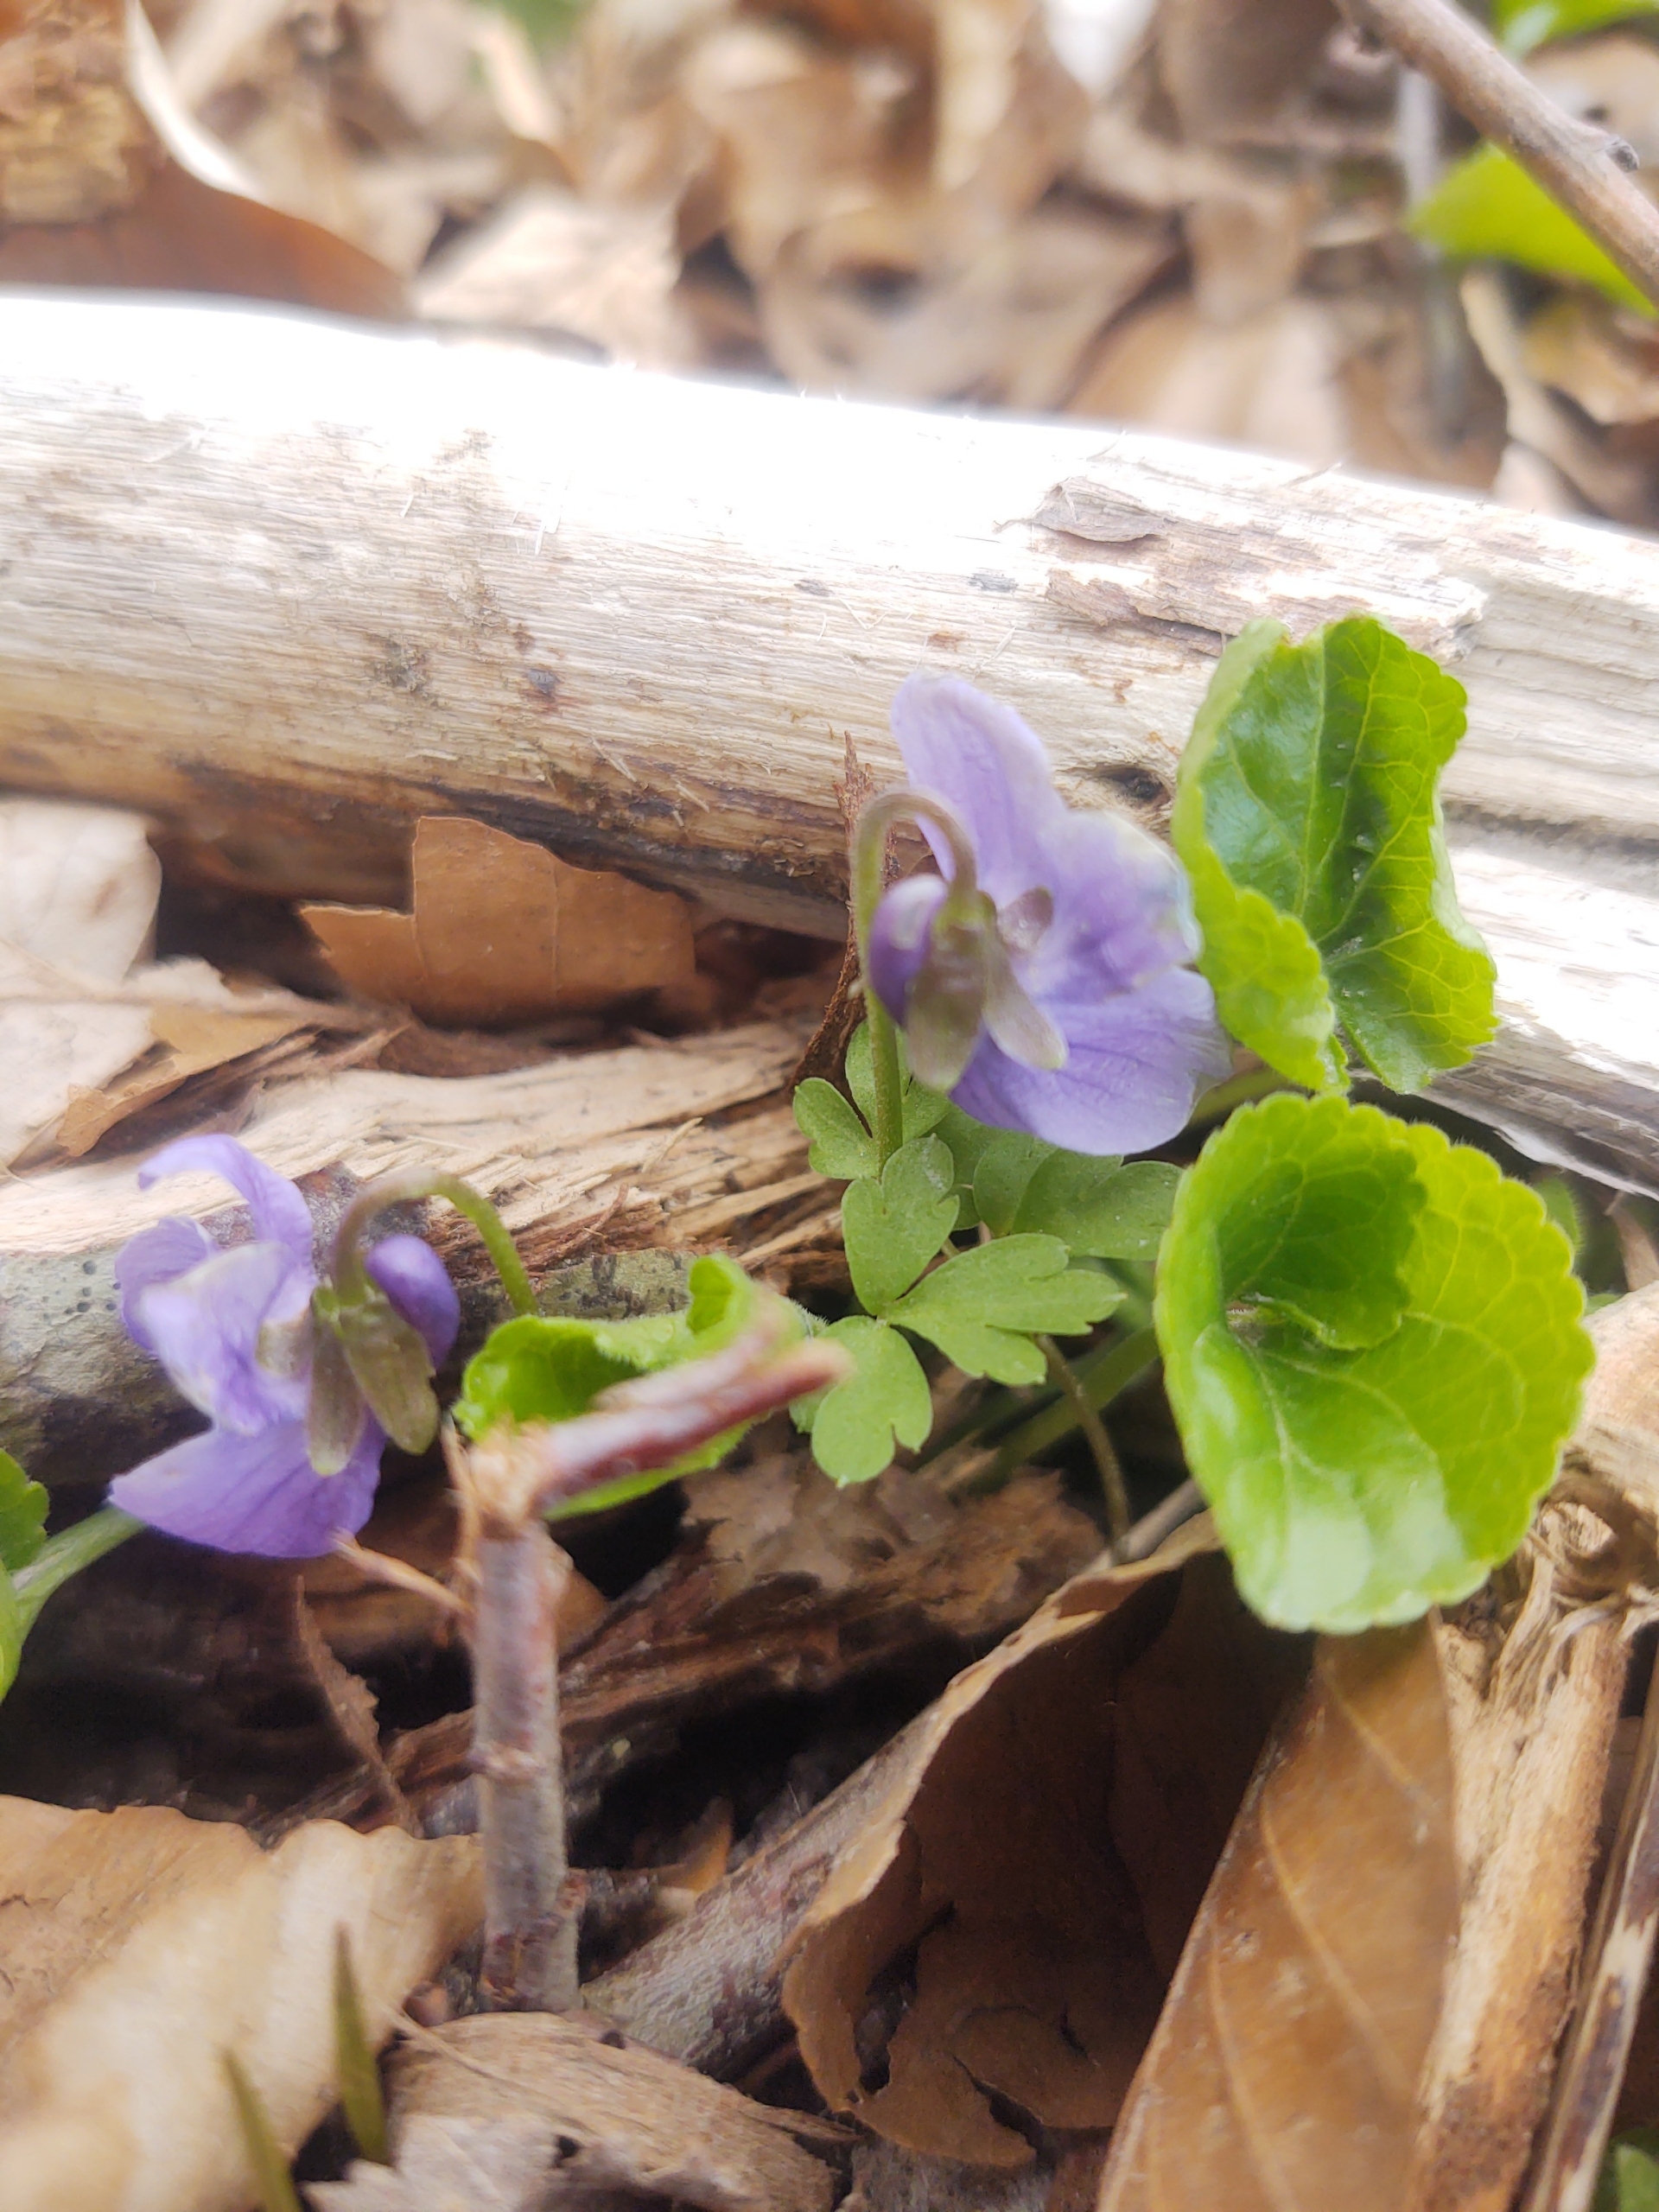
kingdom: Plantae
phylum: Tracheophyta
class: Magnoliopsida
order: Malpighiales
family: Violaceae
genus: Viola
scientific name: Viola odorata
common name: Marts-viol
